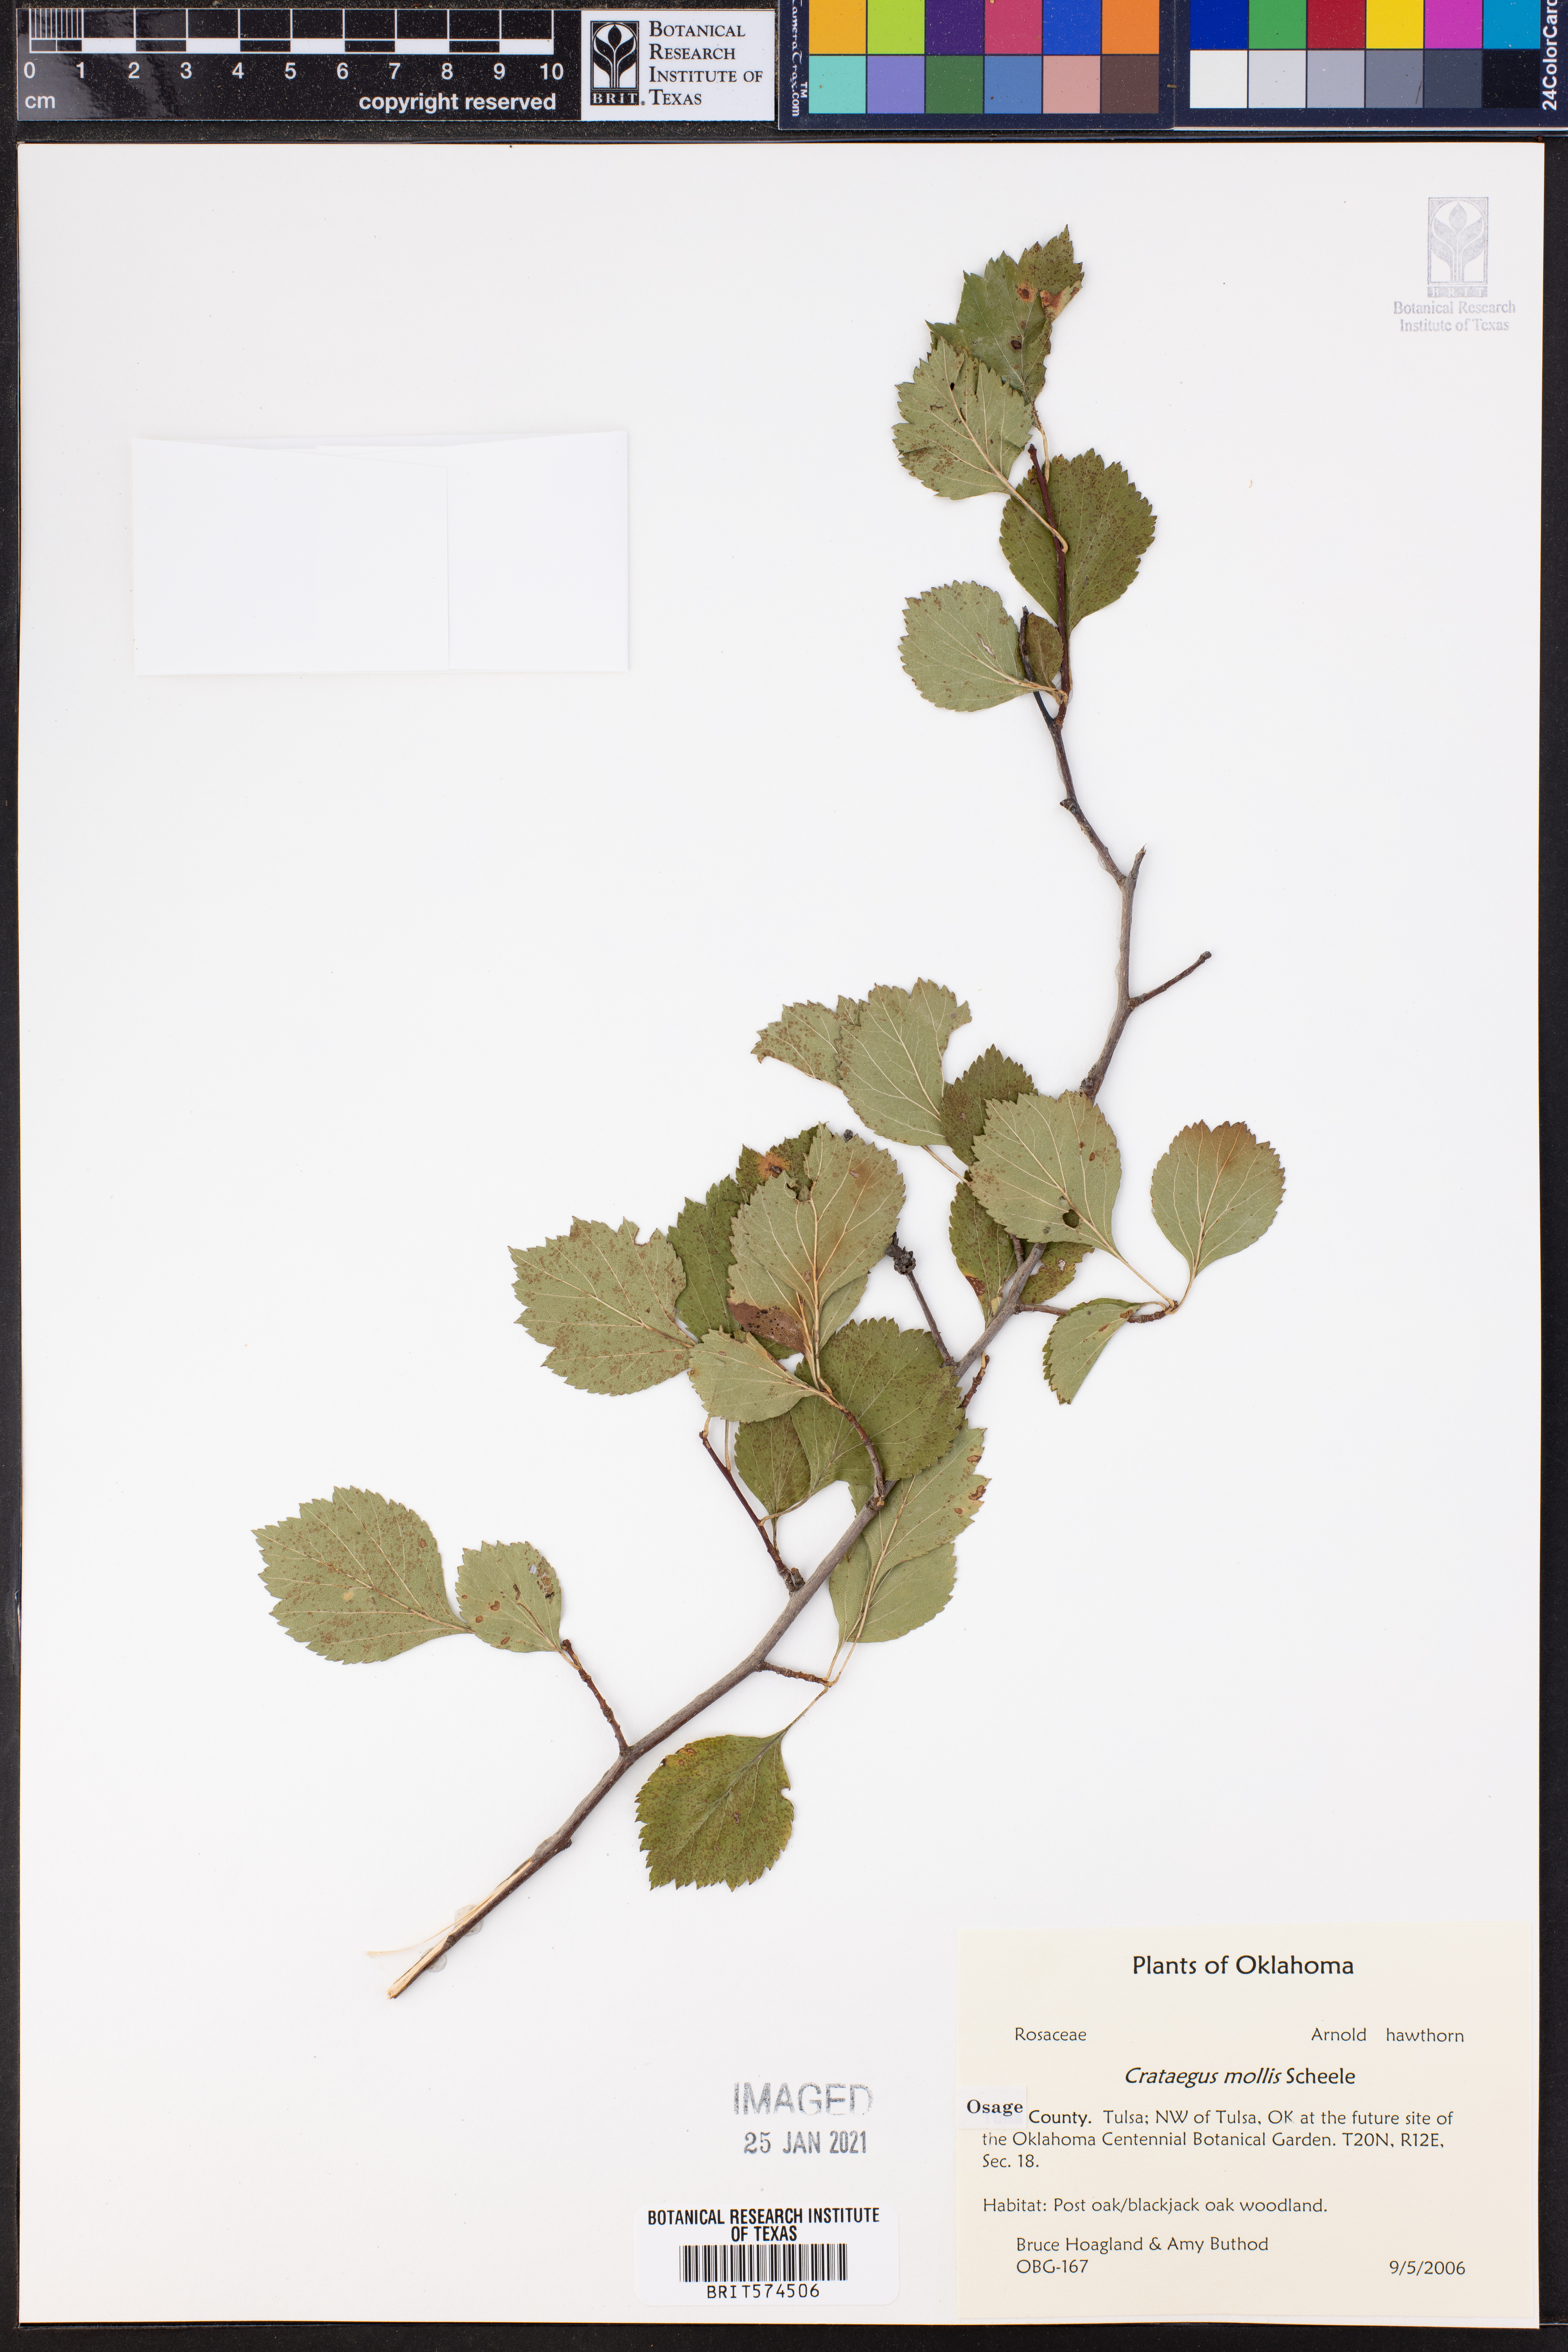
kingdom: Plantae
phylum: Tracheophyta
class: Magnoliopsida
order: Rosales
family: Rosaceae
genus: Crataegus
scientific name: Crataegus mollis
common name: Downy hawthorn
